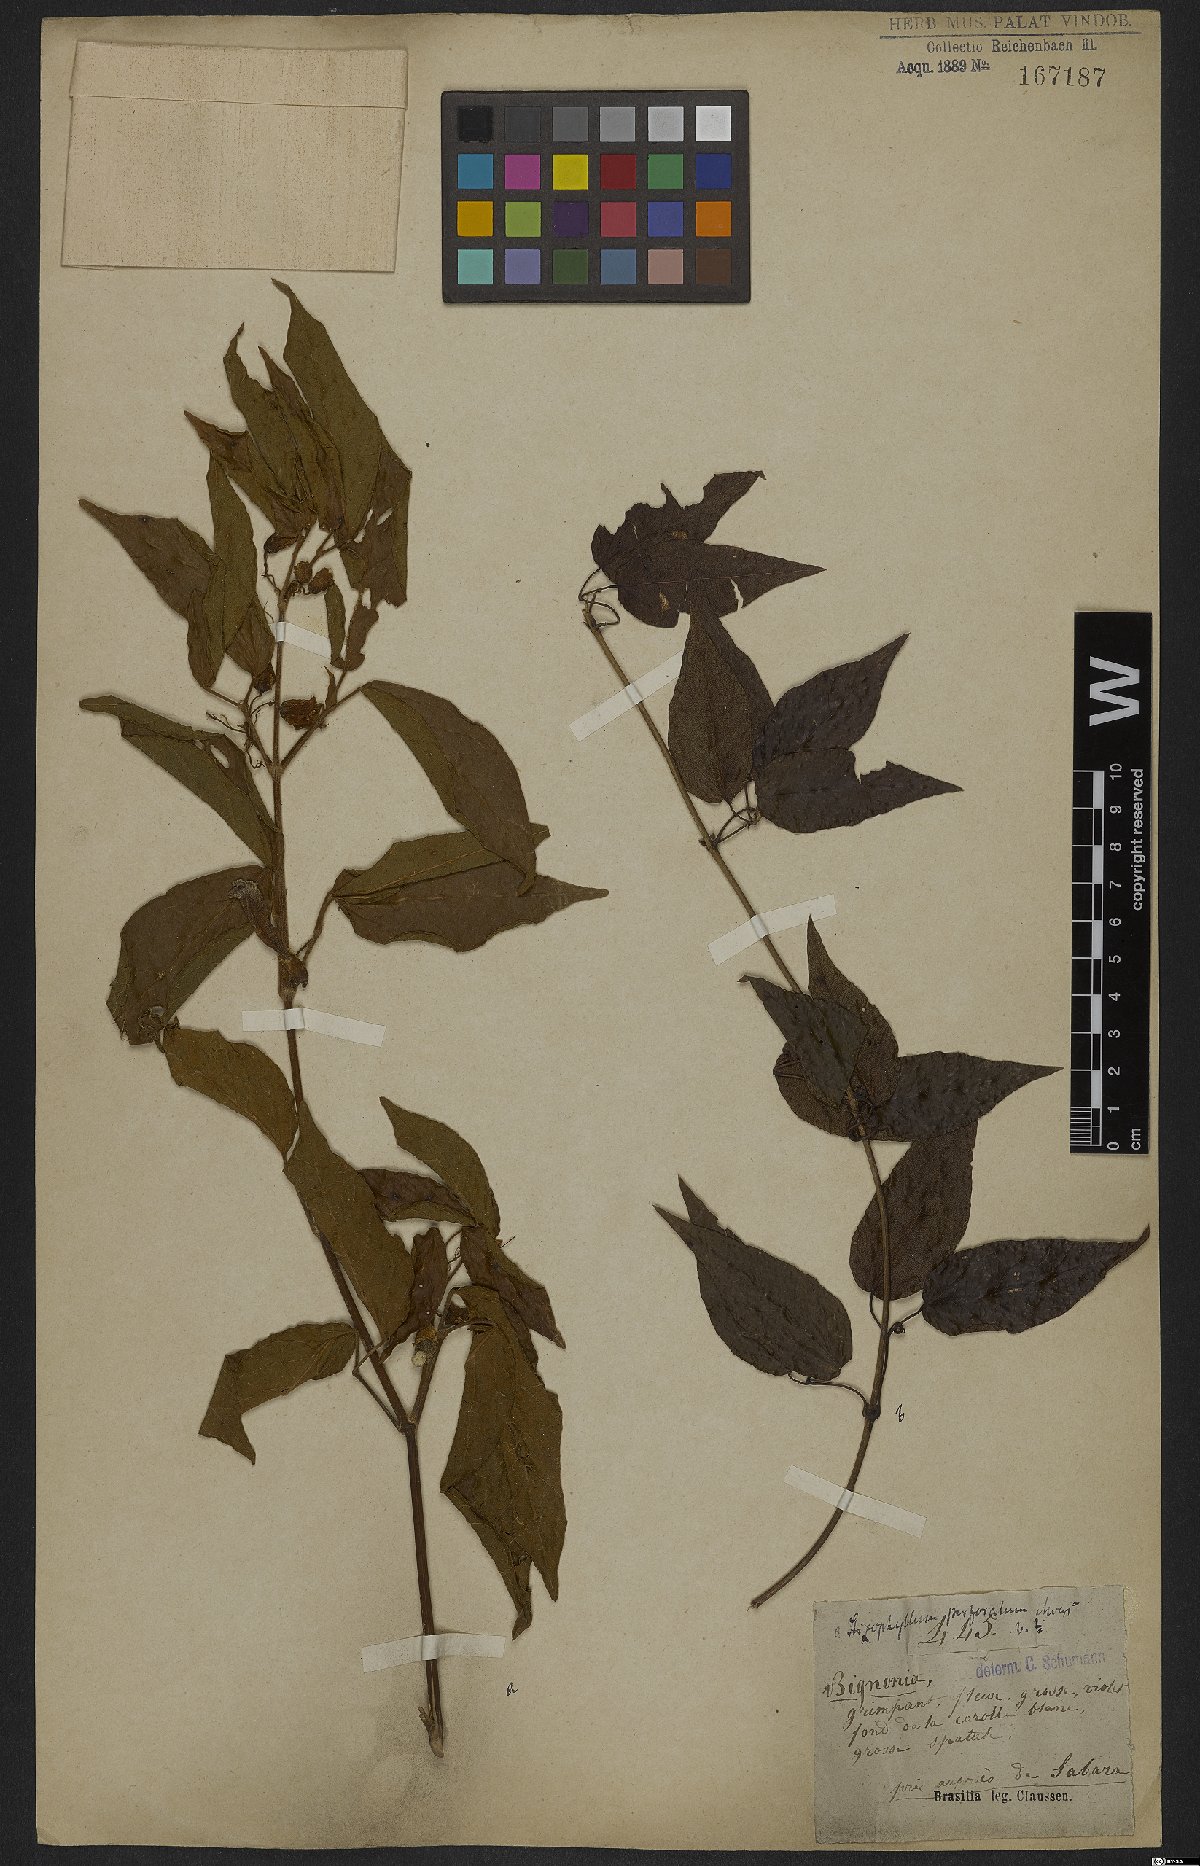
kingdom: Plantae
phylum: Tracheophyta
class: Magnoliopsida
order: Lamiales
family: Bignoniaceae
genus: Stizophyllum
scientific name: Stizophyllum perforatum
